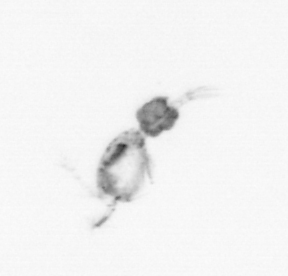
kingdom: Animalia
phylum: Arthropoda
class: Copepoda
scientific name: Copepoda
